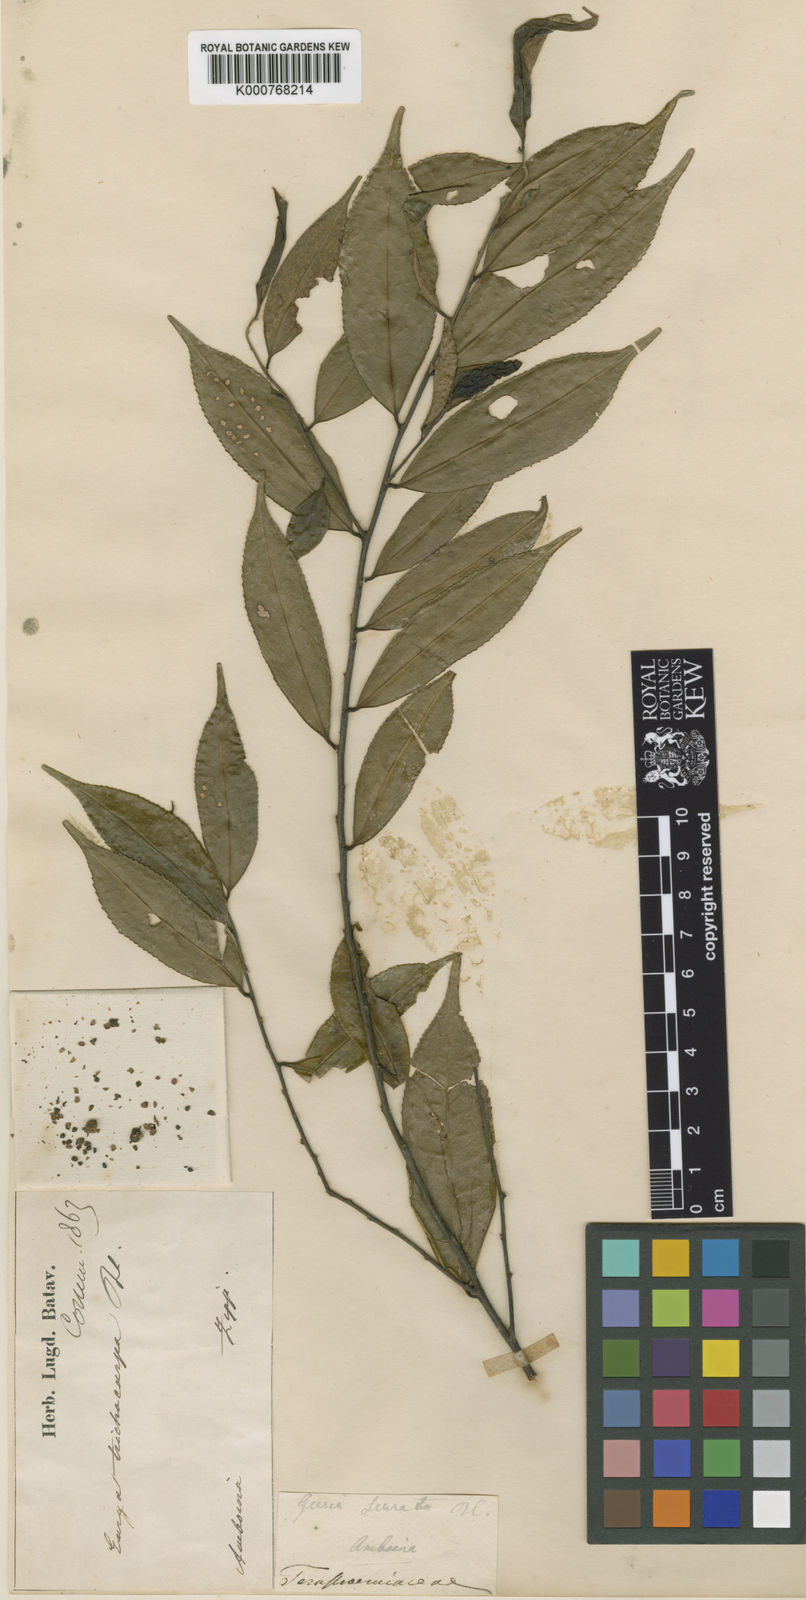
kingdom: Plantae
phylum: Tracheophyta
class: Magnoliopsida
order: Ericales
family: Pentaphylacaceae
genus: Eurya
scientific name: Eurya trichocarpa
